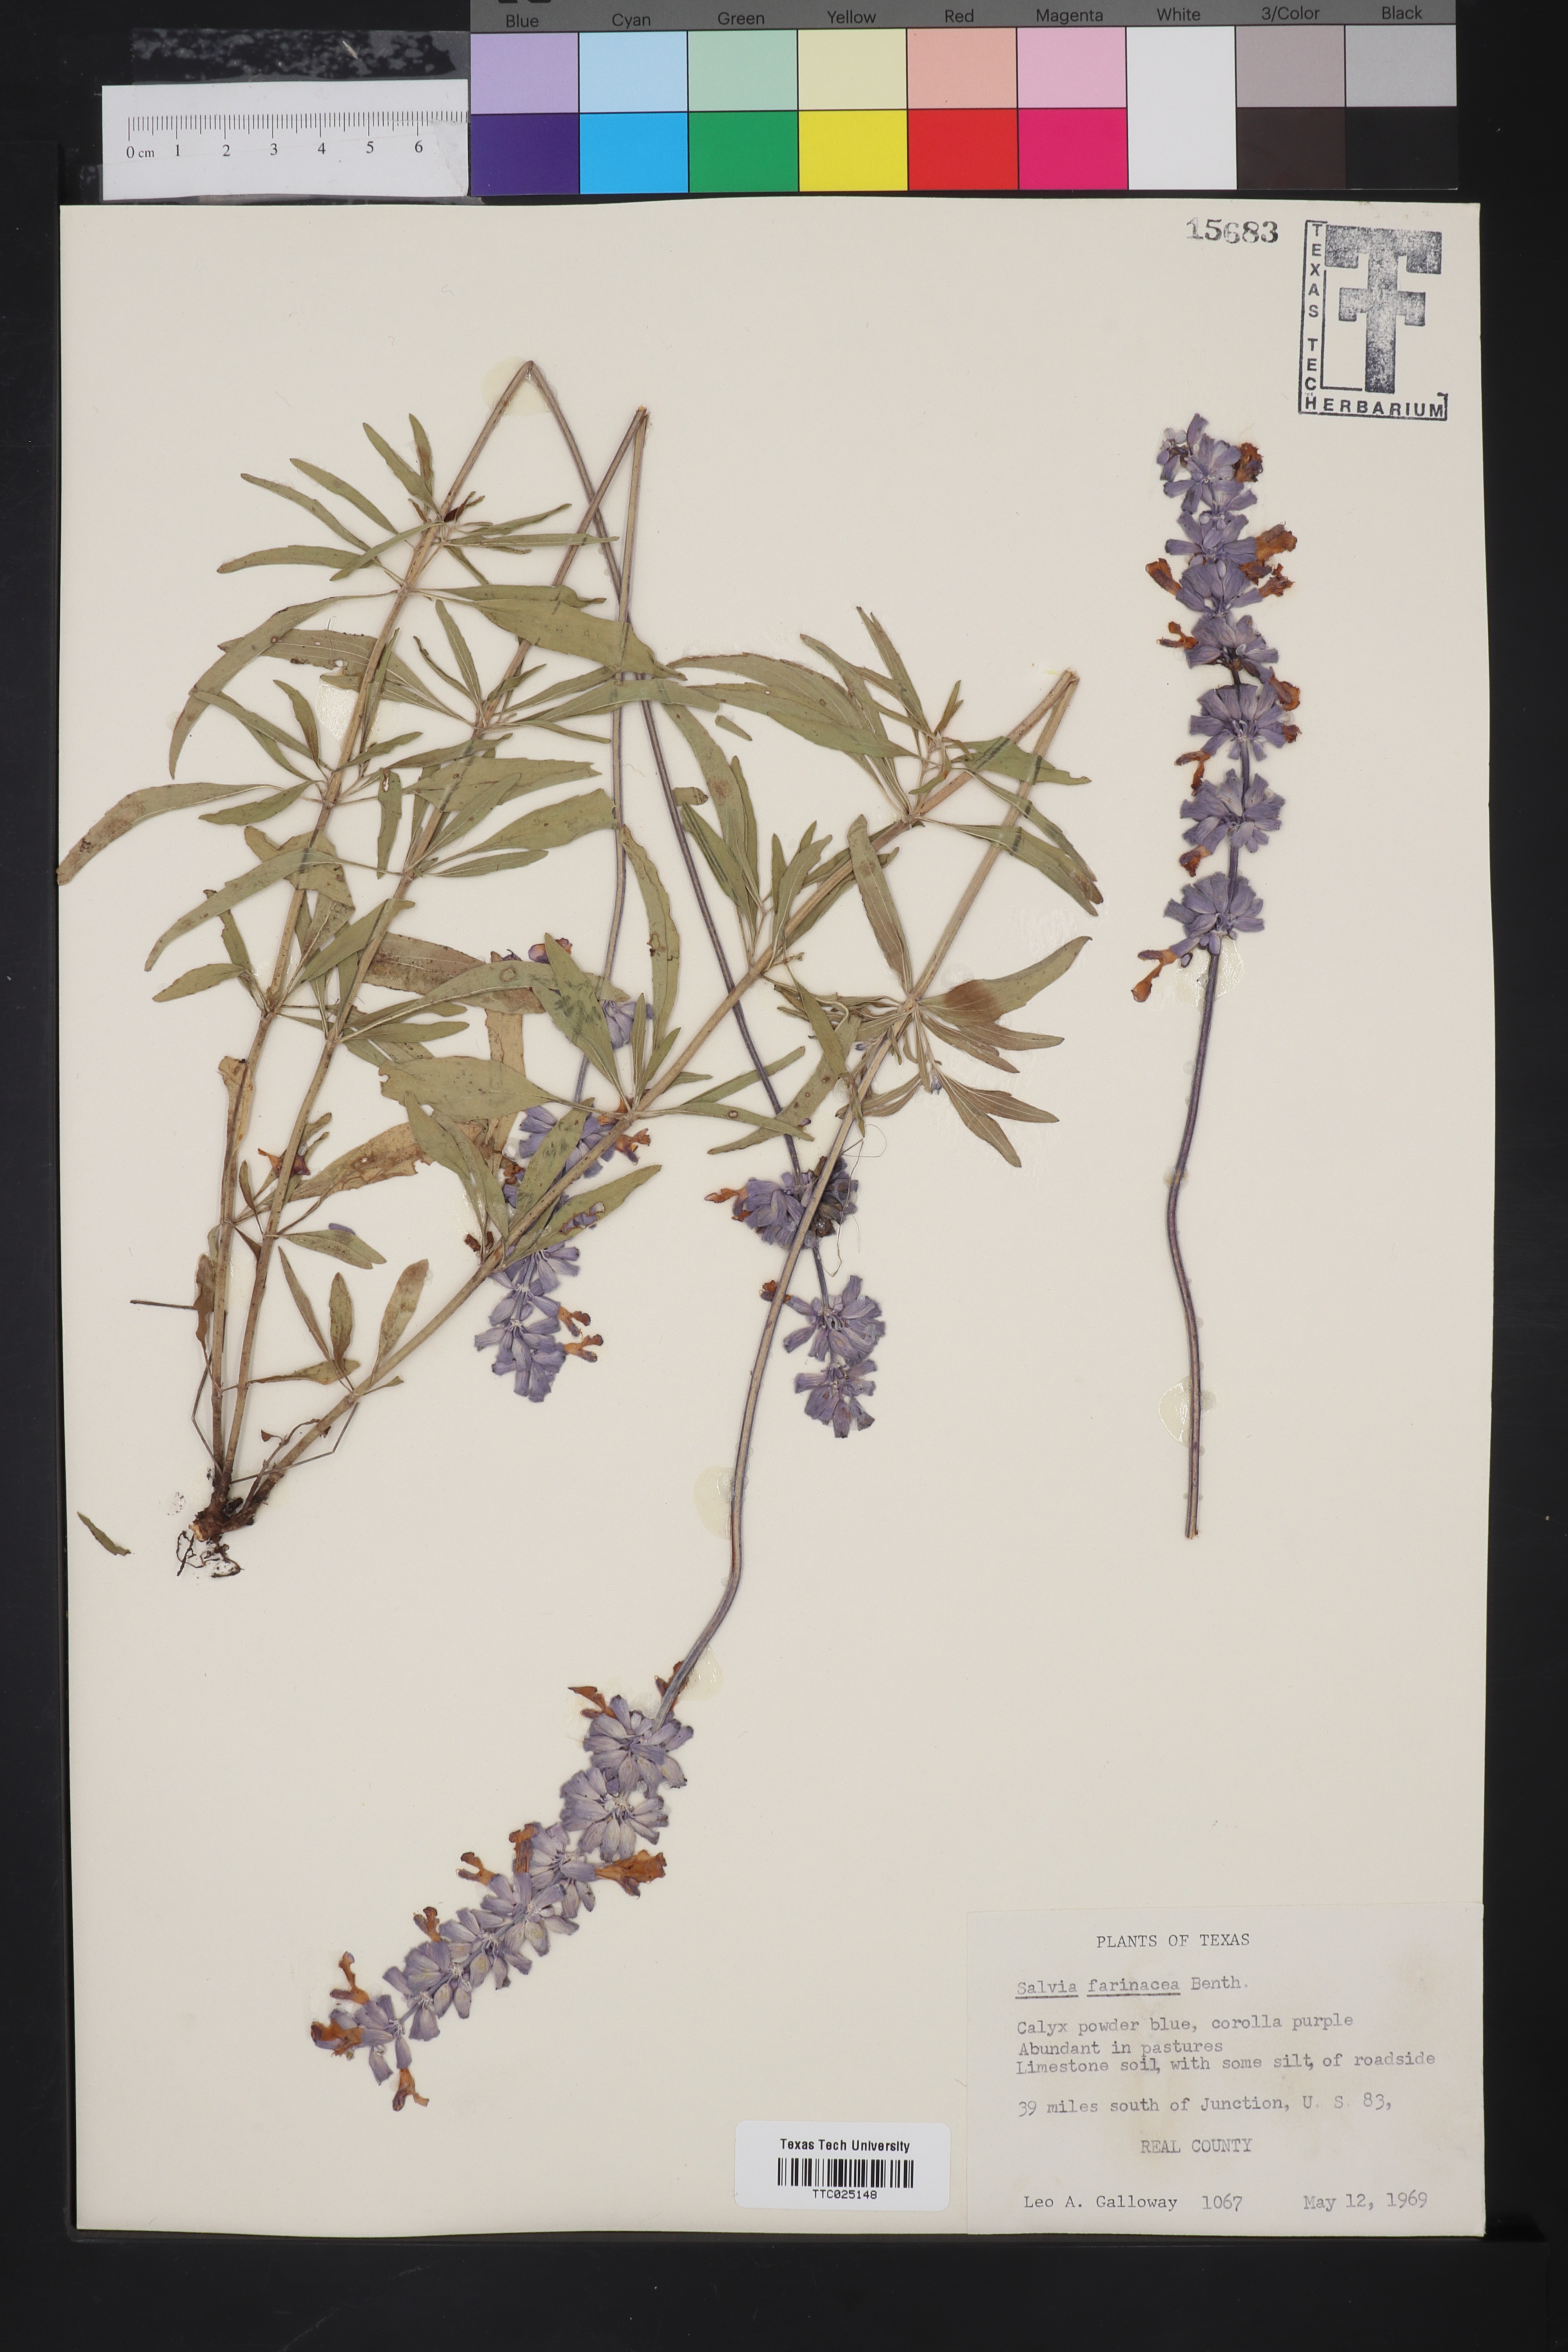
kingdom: Plantae
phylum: Tracheophyta
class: Magnoliopsida
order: Lamiales
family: Lamiaceae
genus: Salvia
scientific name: Salvia farinacea
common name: Mealy sage
